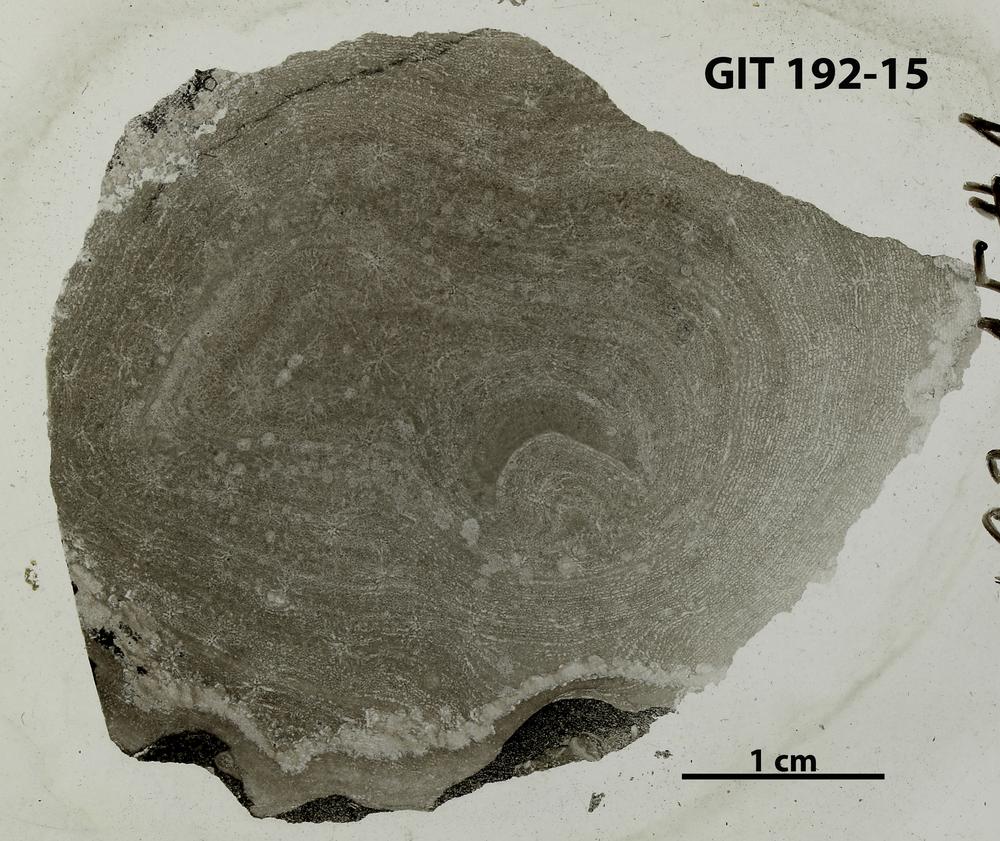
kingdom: Animalia
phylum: Porifera
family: Clathrodictyidae
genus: Clathrodictyon
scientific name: Clathrodictyon kudriavzevi
